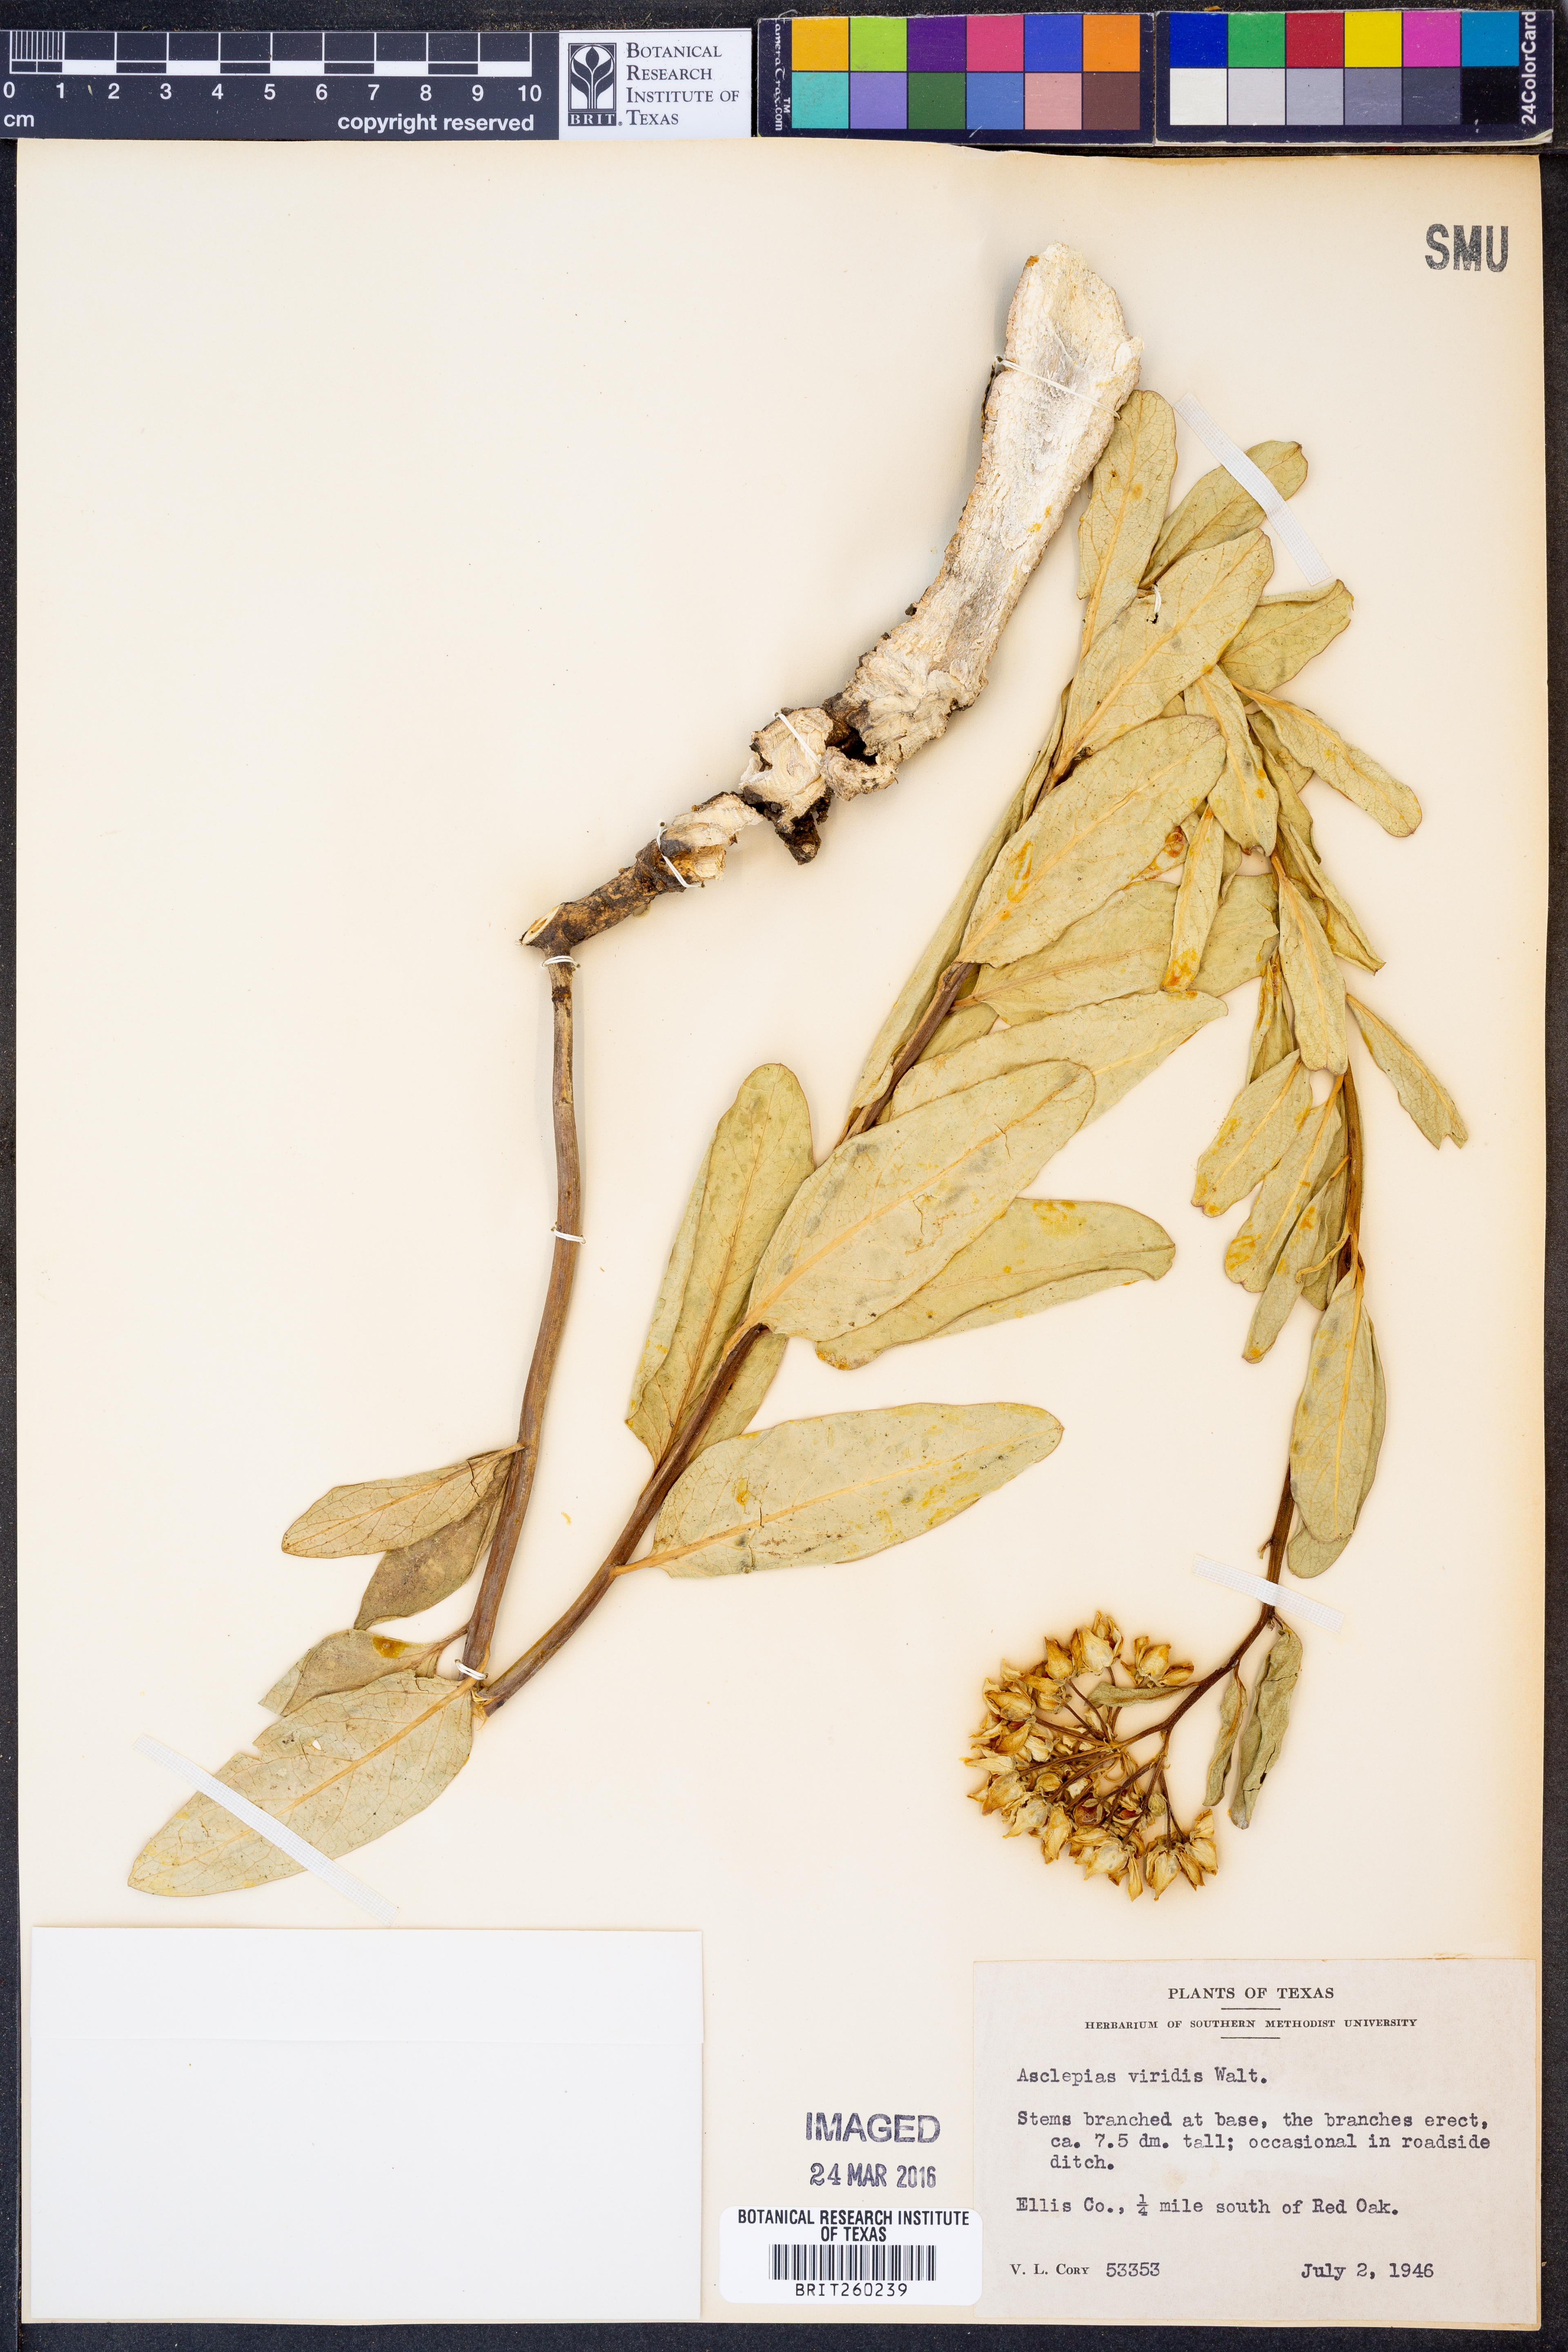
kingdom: Plantae
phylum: Tracheophyta
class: Magnoliopsida
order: Gentianales
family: Apocynaceae
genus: Asclepias
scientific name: Asclepias viridis
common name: Antelope-horns
